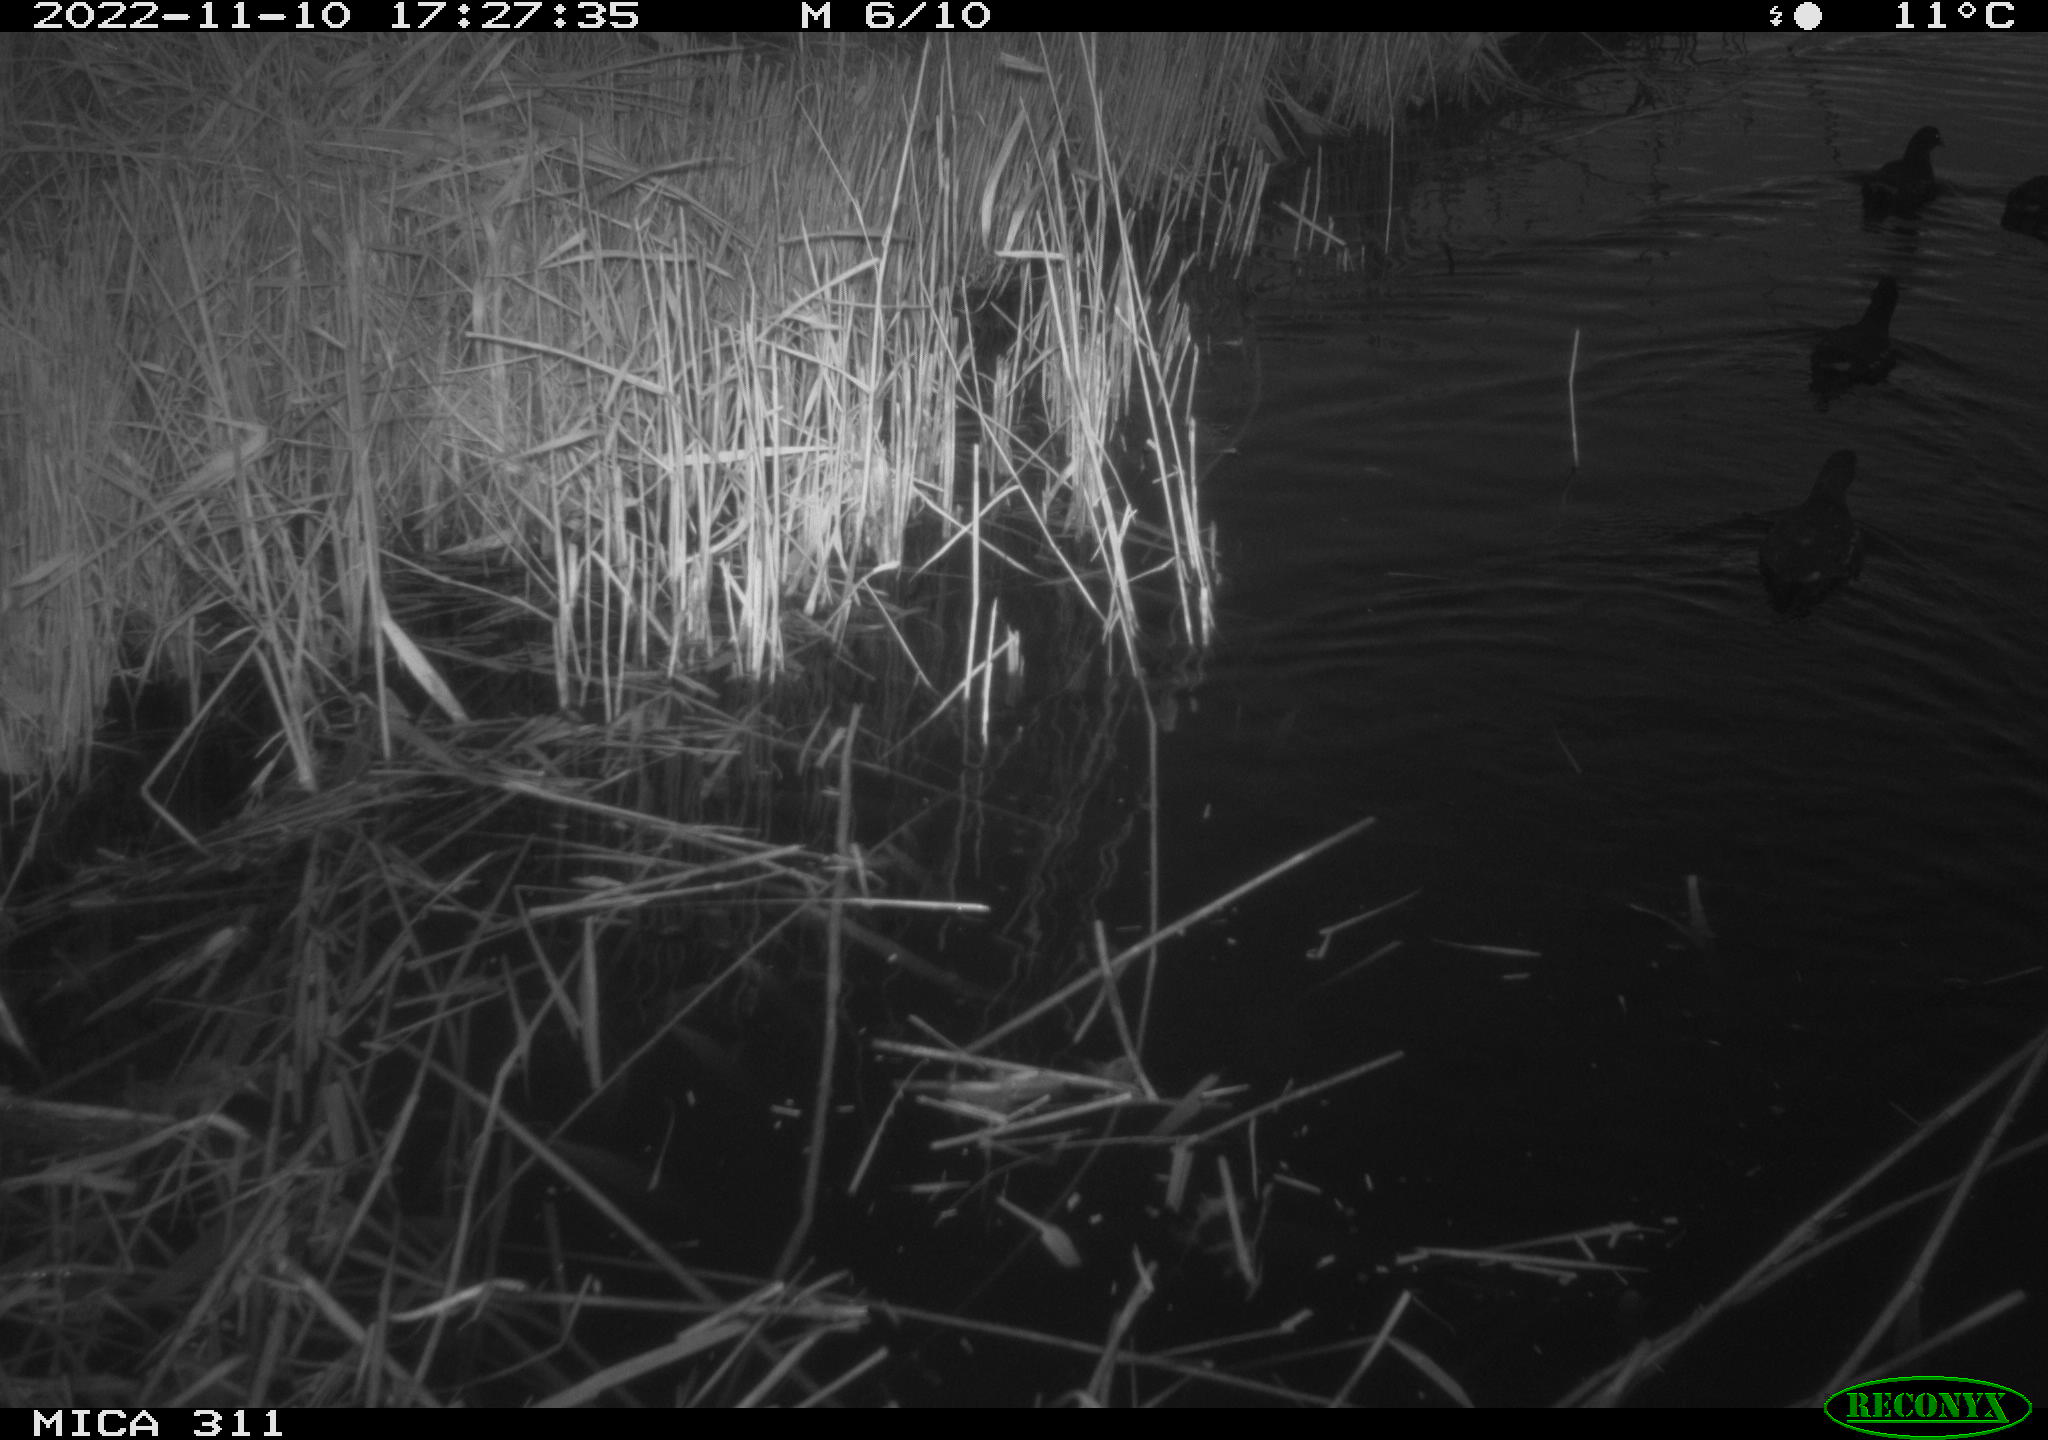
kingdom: Animalia
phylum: Chordata
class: Aves
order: Gruiformes
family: Rallidae
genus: Gallinula
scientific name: Gallinula chloropus
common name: Common moorhen
